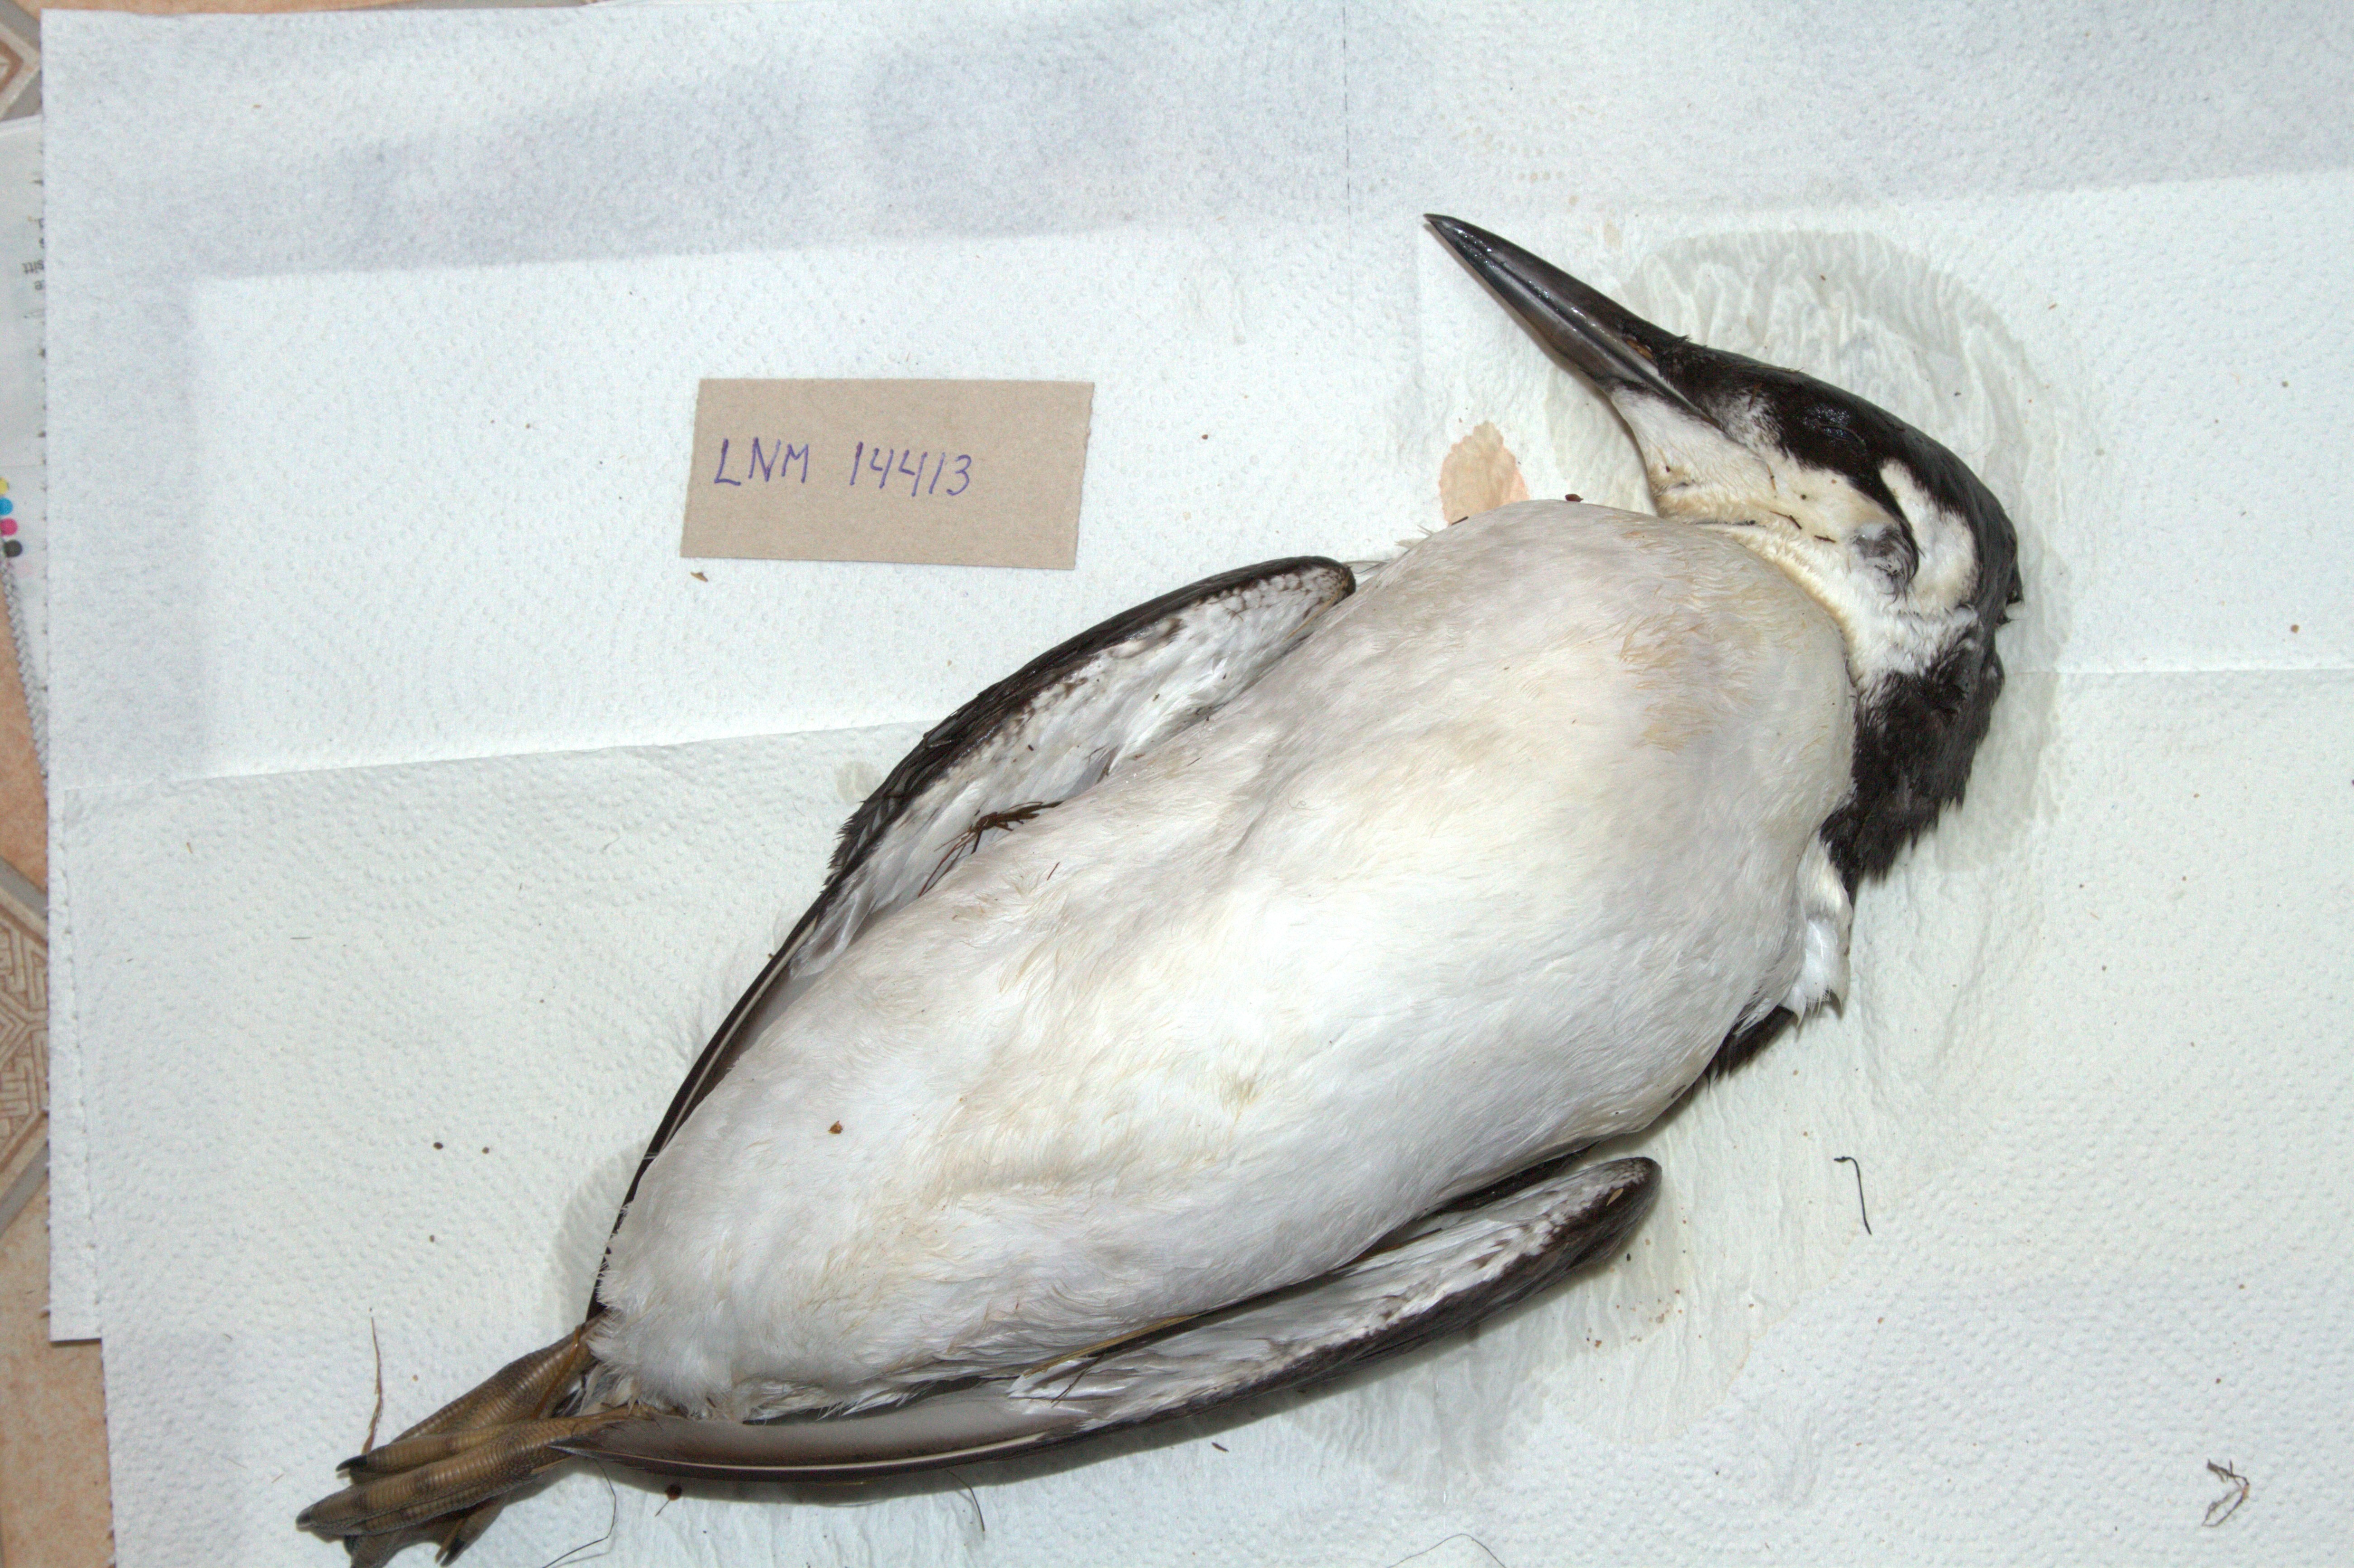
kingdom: Animalia
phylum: Chordata
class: Aves
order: Charadriiformes
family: Alcidae
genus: Uria
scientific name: Uria aalge
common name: Common murre
